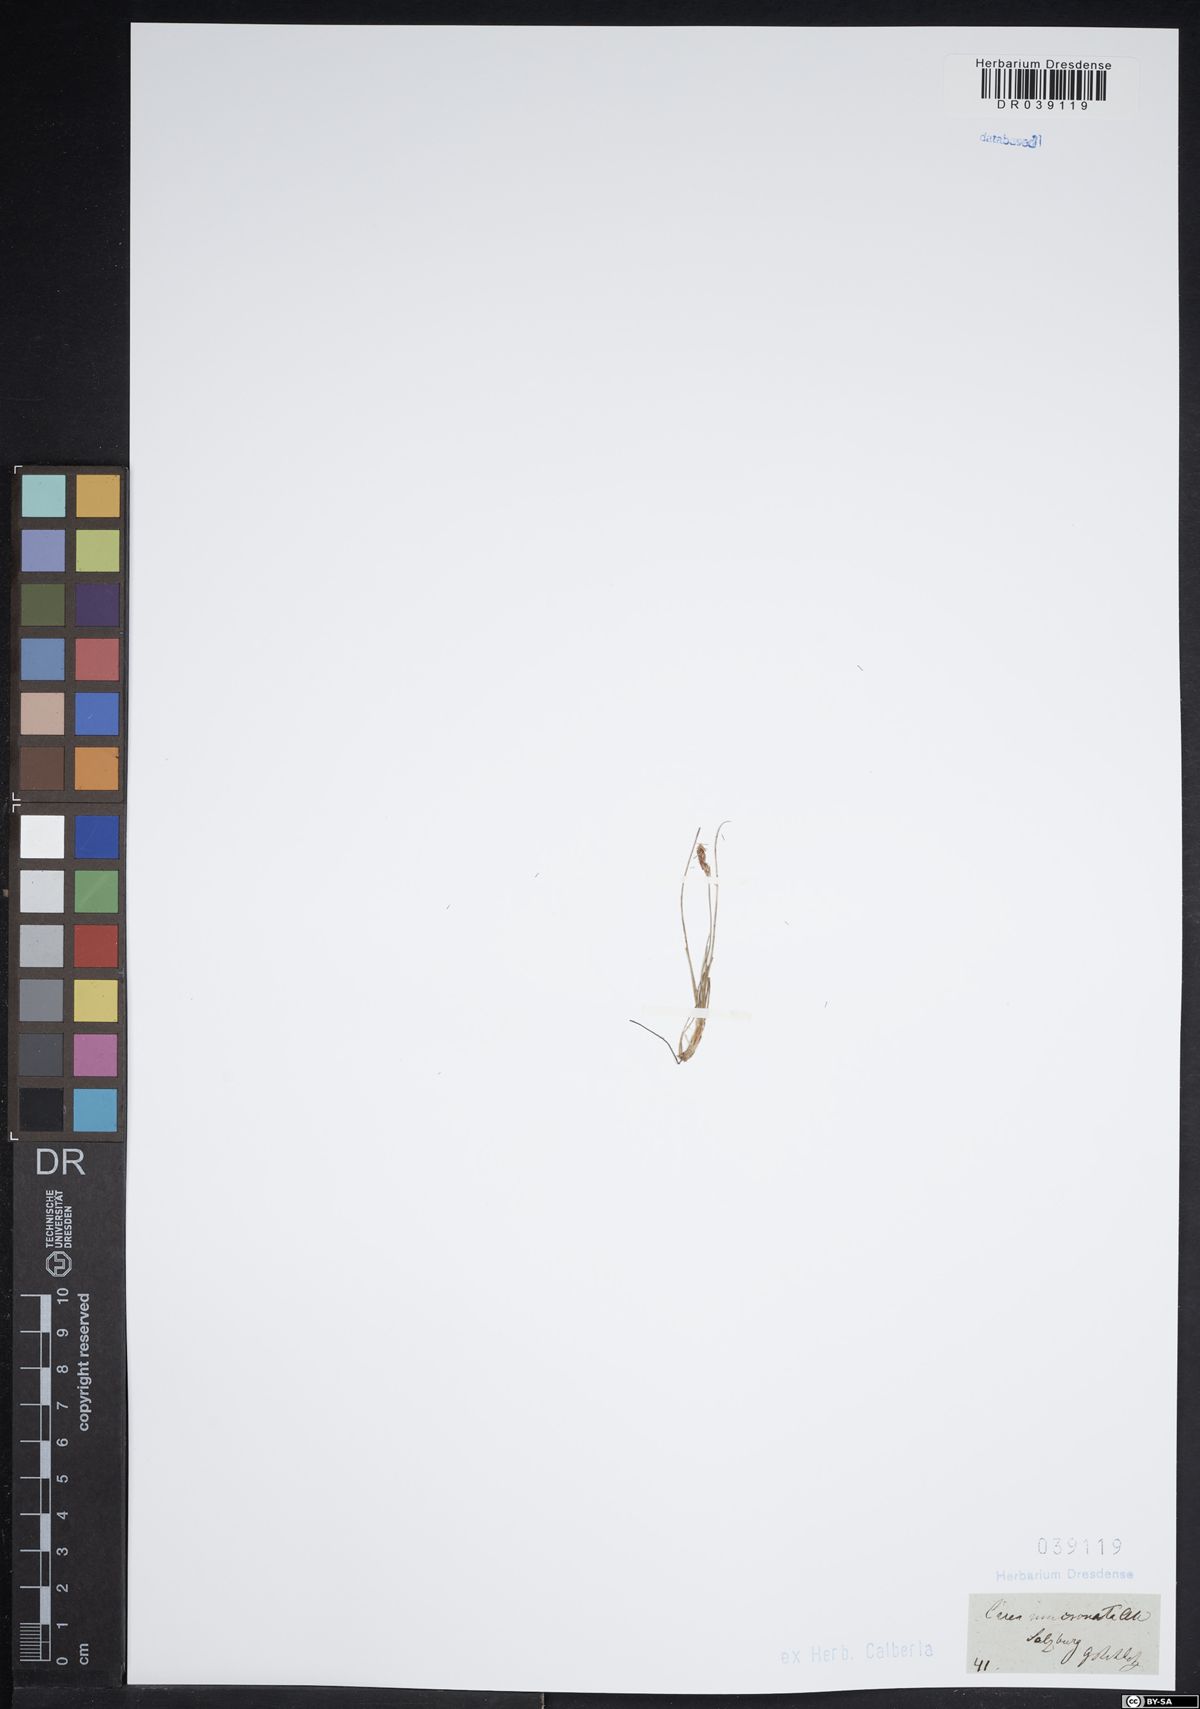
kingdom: Plantae
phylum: Tracheophyta
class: Liliopsida
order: Poales
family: Cyperaceae
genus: Carex
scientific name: Carex mucronata
